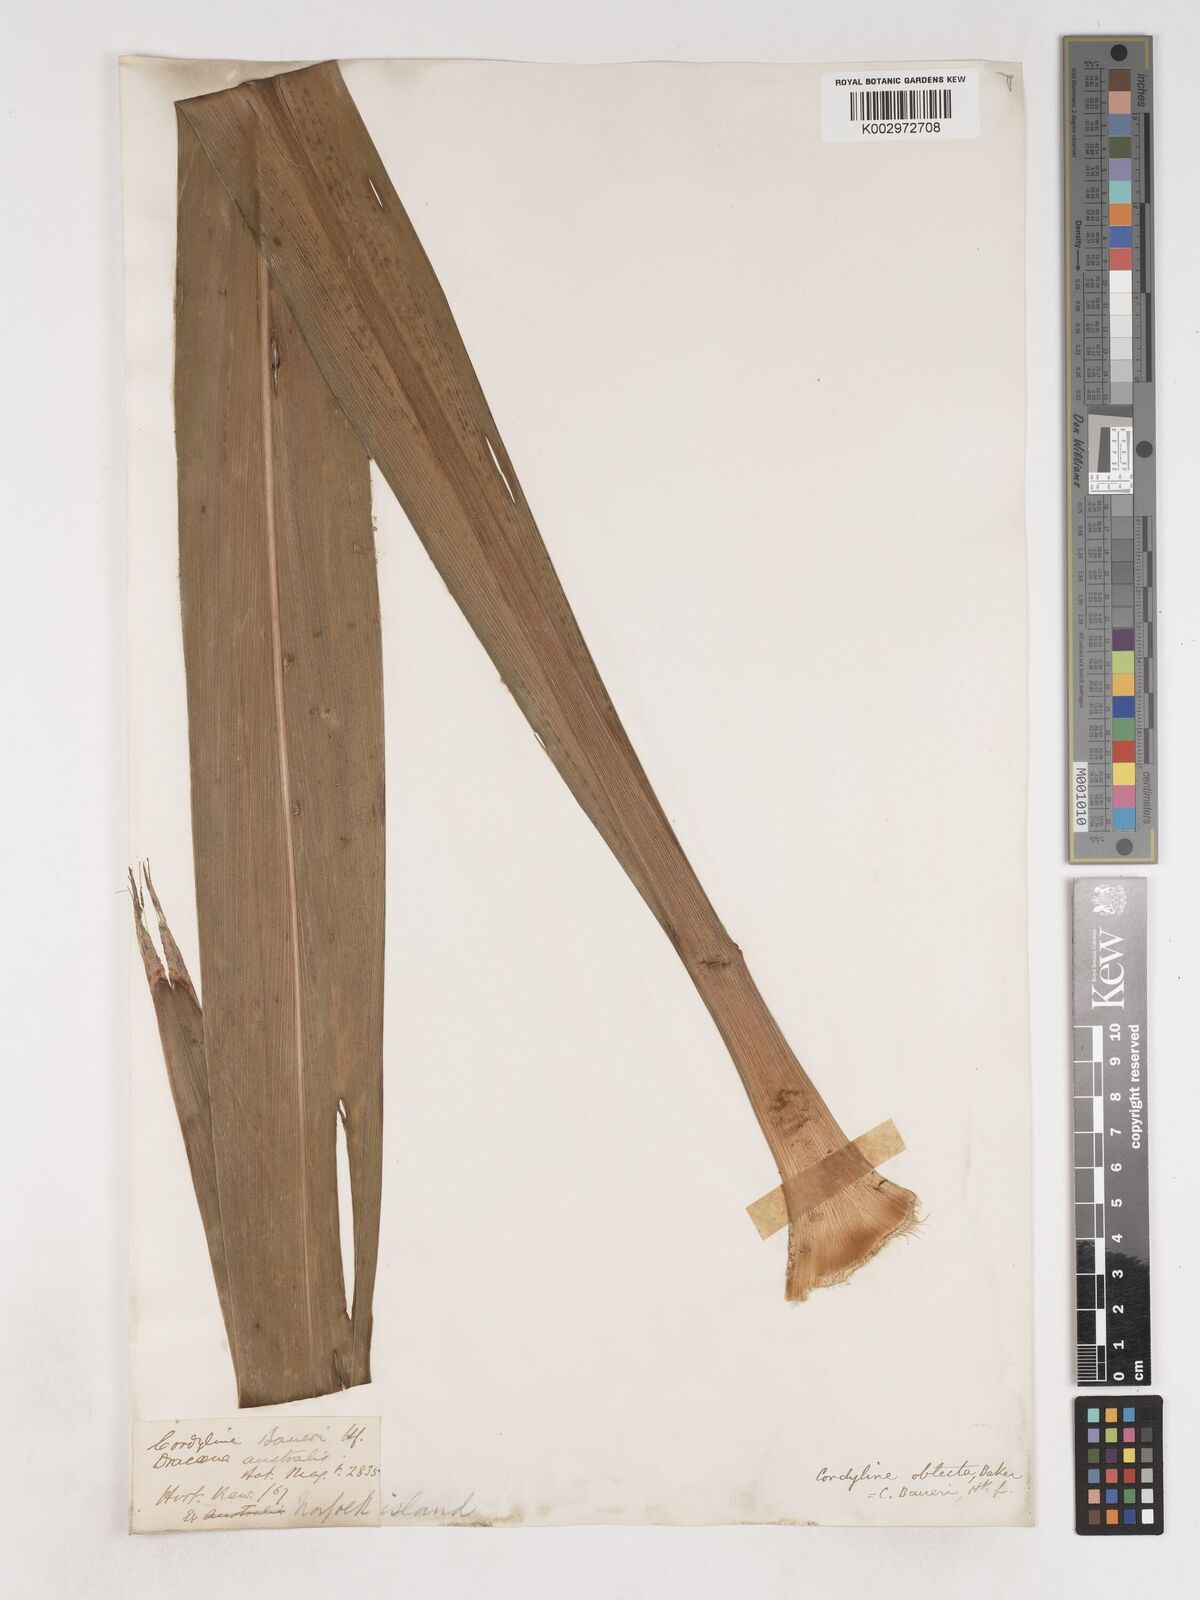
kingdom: Plantae
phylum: Tracheophyta
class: Liliopsida
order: Asparagales
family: Asparagaceae
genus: Cordyline
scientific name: Cordyline obtecta
